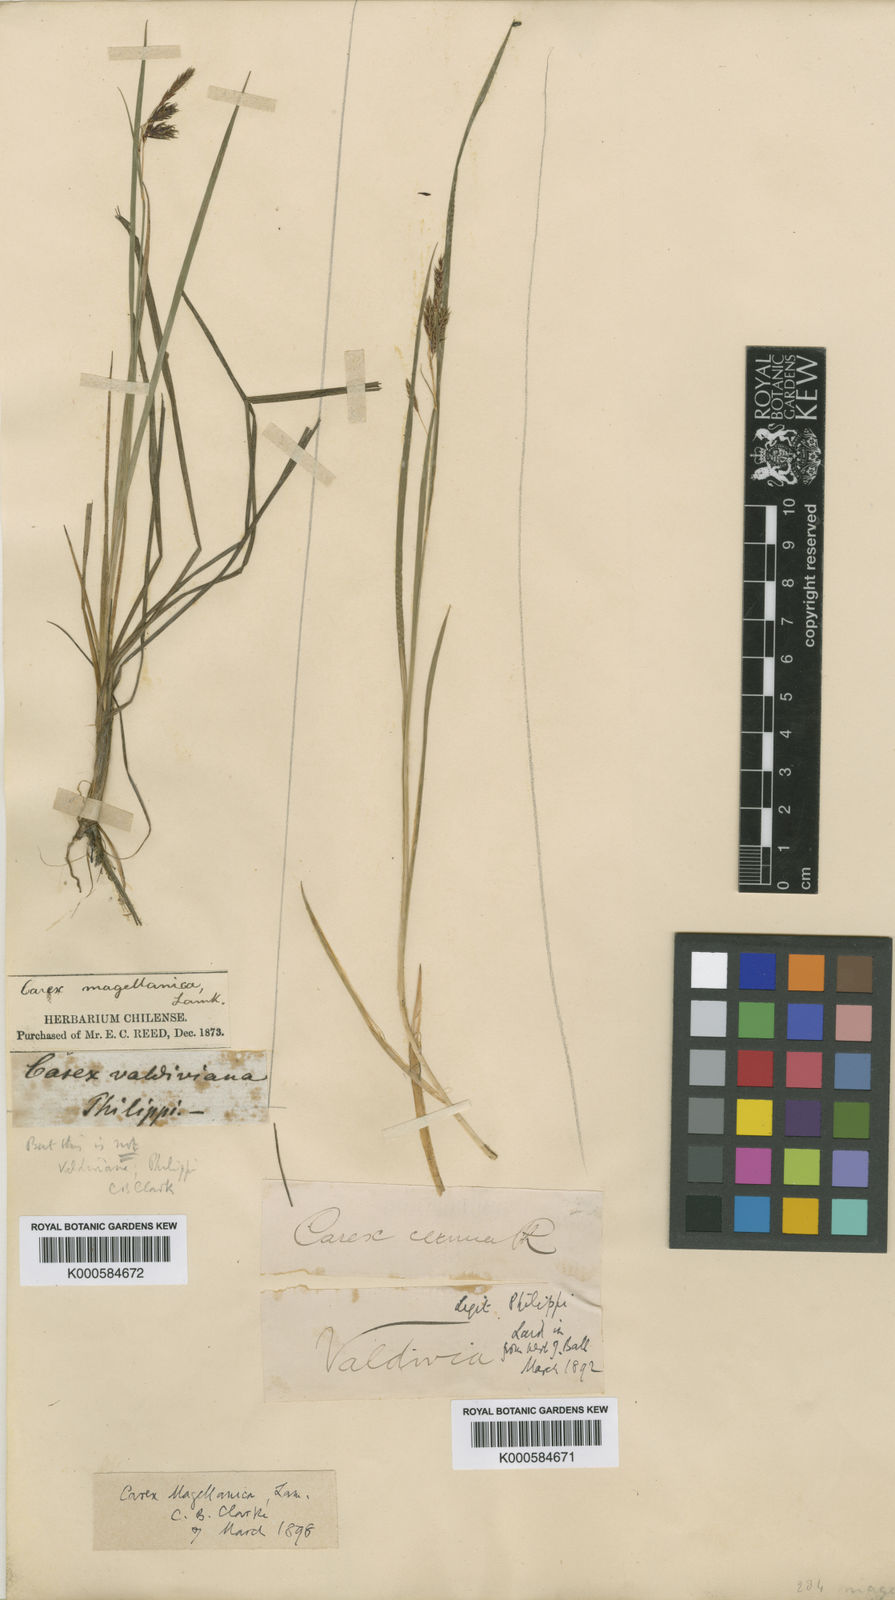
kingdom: Plantae
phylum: Tracheophyta
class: Liliopsida
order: Poales
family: Cyperaceae
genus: Carex
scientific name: Carex magellanica
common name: Bog sedge
